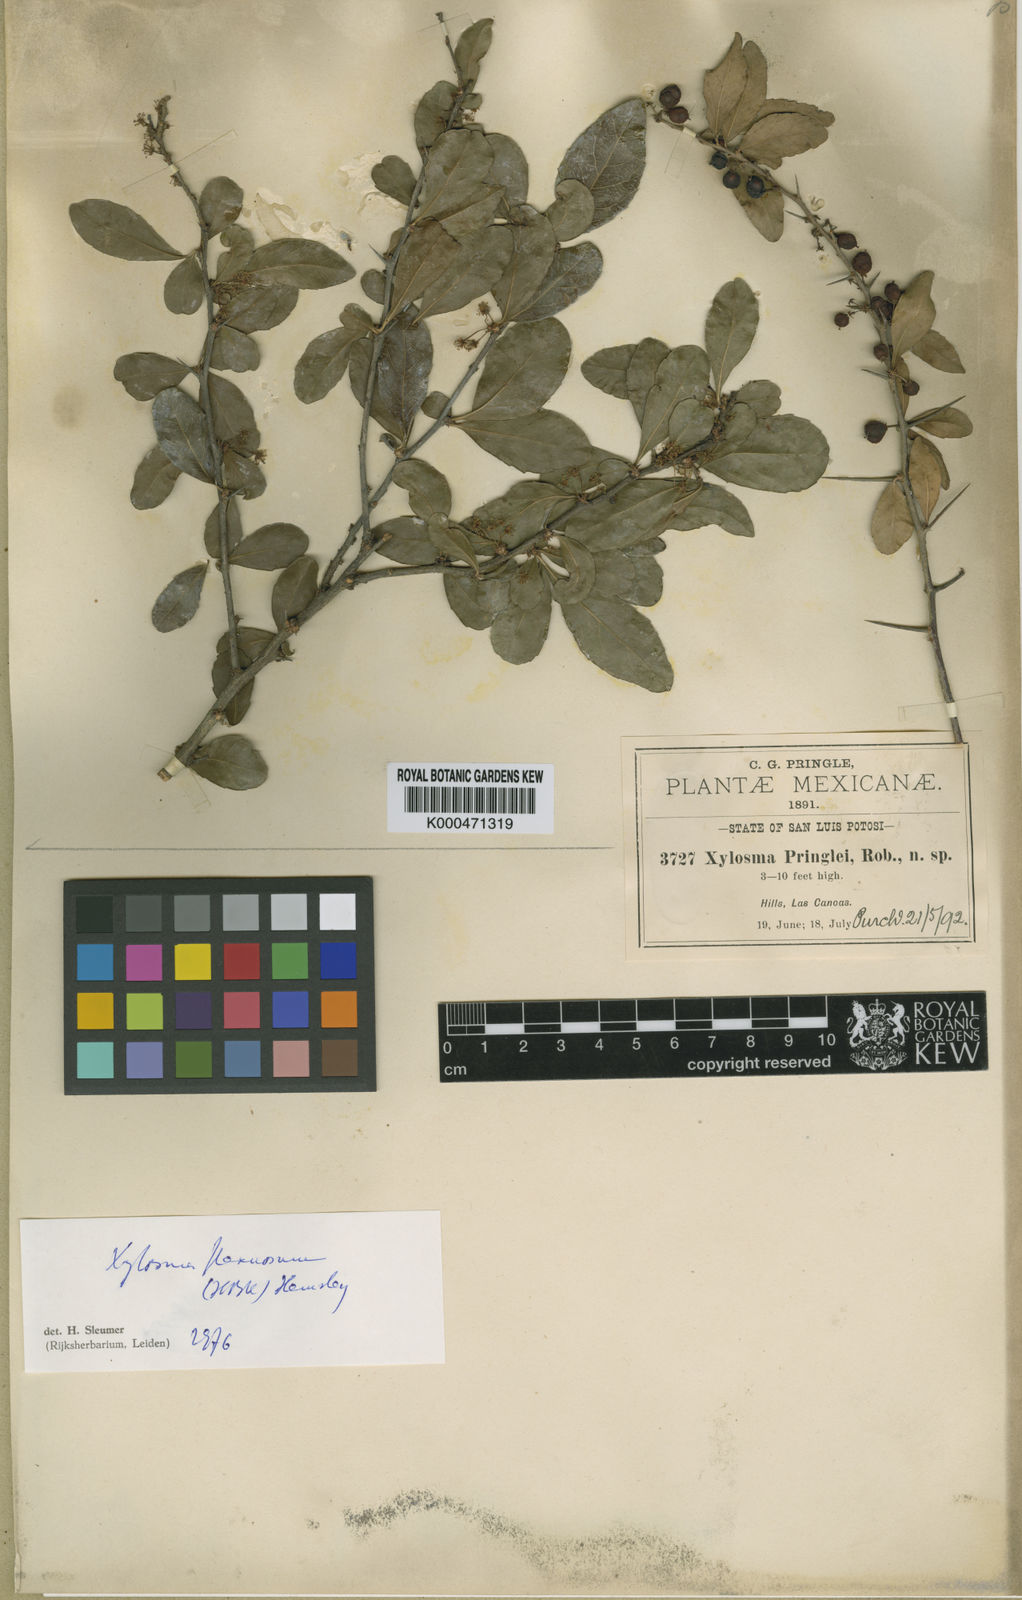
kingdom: Plantae
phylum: Tracheophyta
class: Magnoliopsida
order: Malpighiales
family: Salicaceae
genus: Xylosma
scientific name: Xylosma flexuosa
